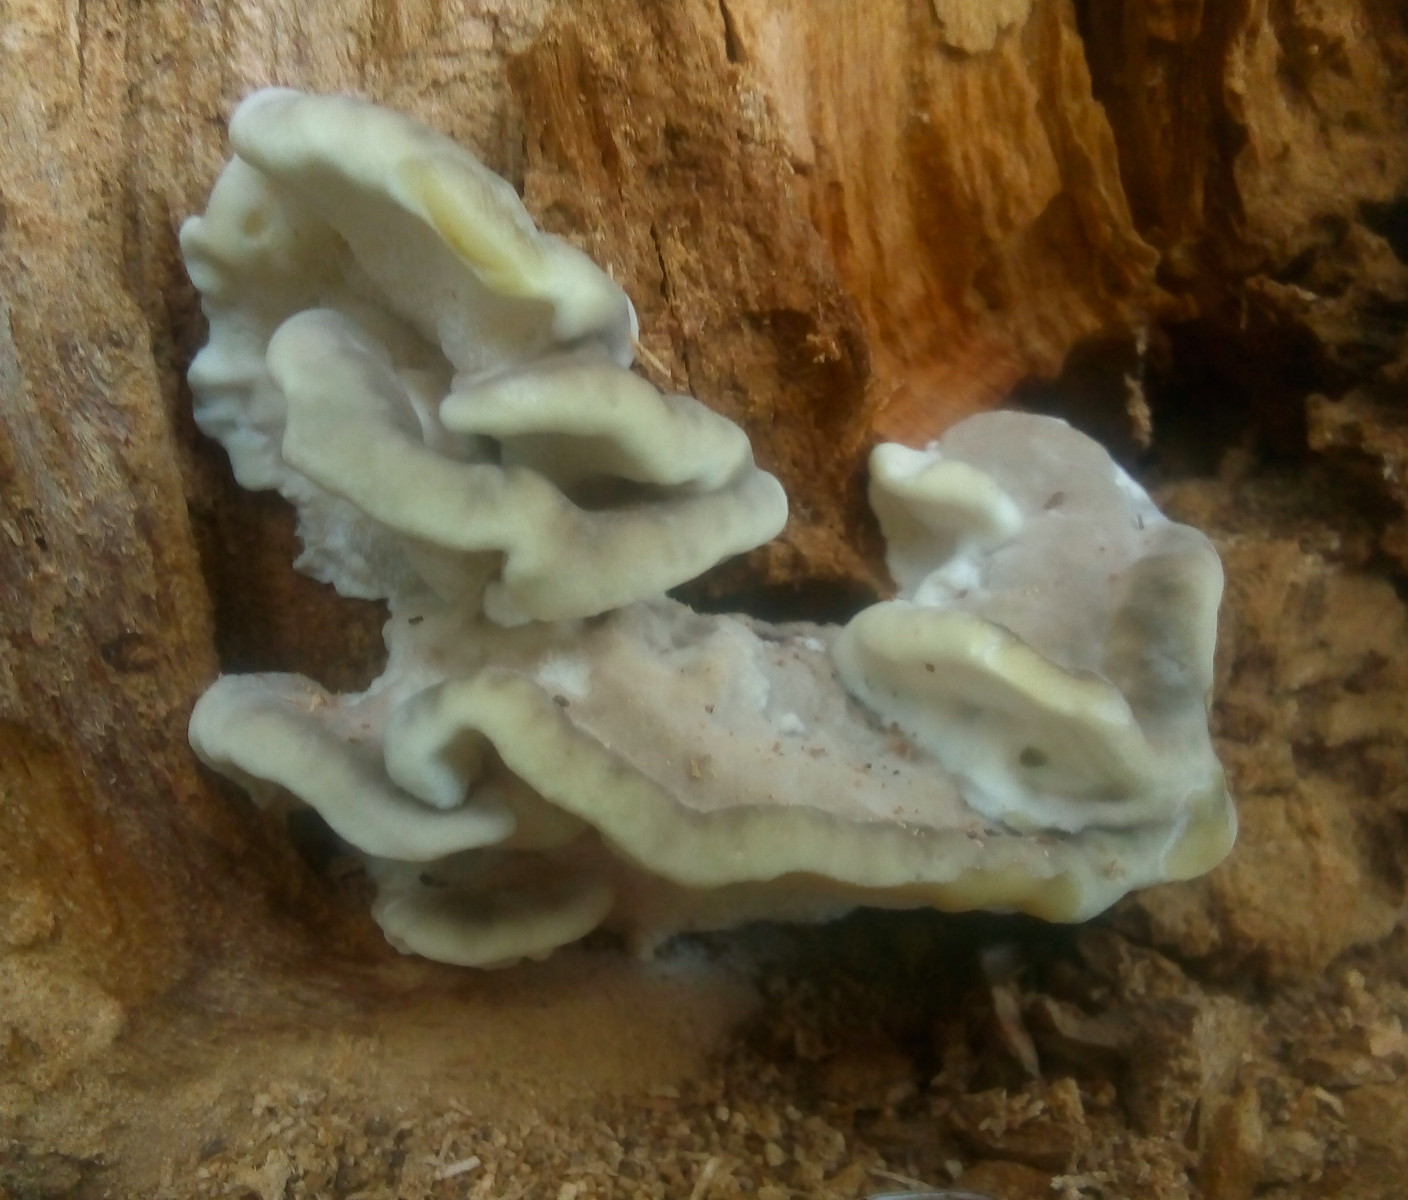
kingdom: Fungi
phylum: Basidiomycota
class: Agaricomycetes
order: Polyporales
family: Phanerochaetaceae
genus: Bjerkandera
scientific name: Bjerkandera adusta
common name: sveden sodporesvamp
